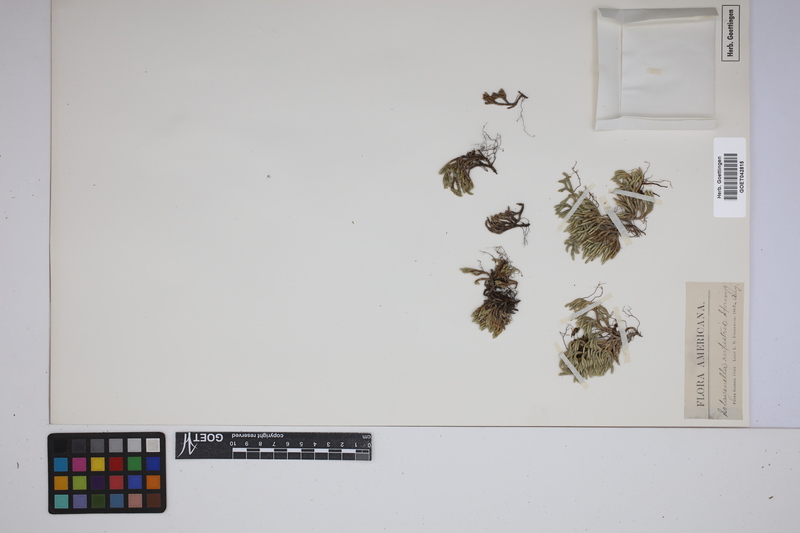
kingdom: Plantae
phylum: Tracheophyta
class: Lycopodiopsida
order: Selaginellales
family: Selaginellaceae
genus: Selaginella
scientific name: Selaginella rupestris
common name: Dwarf spikemoss
